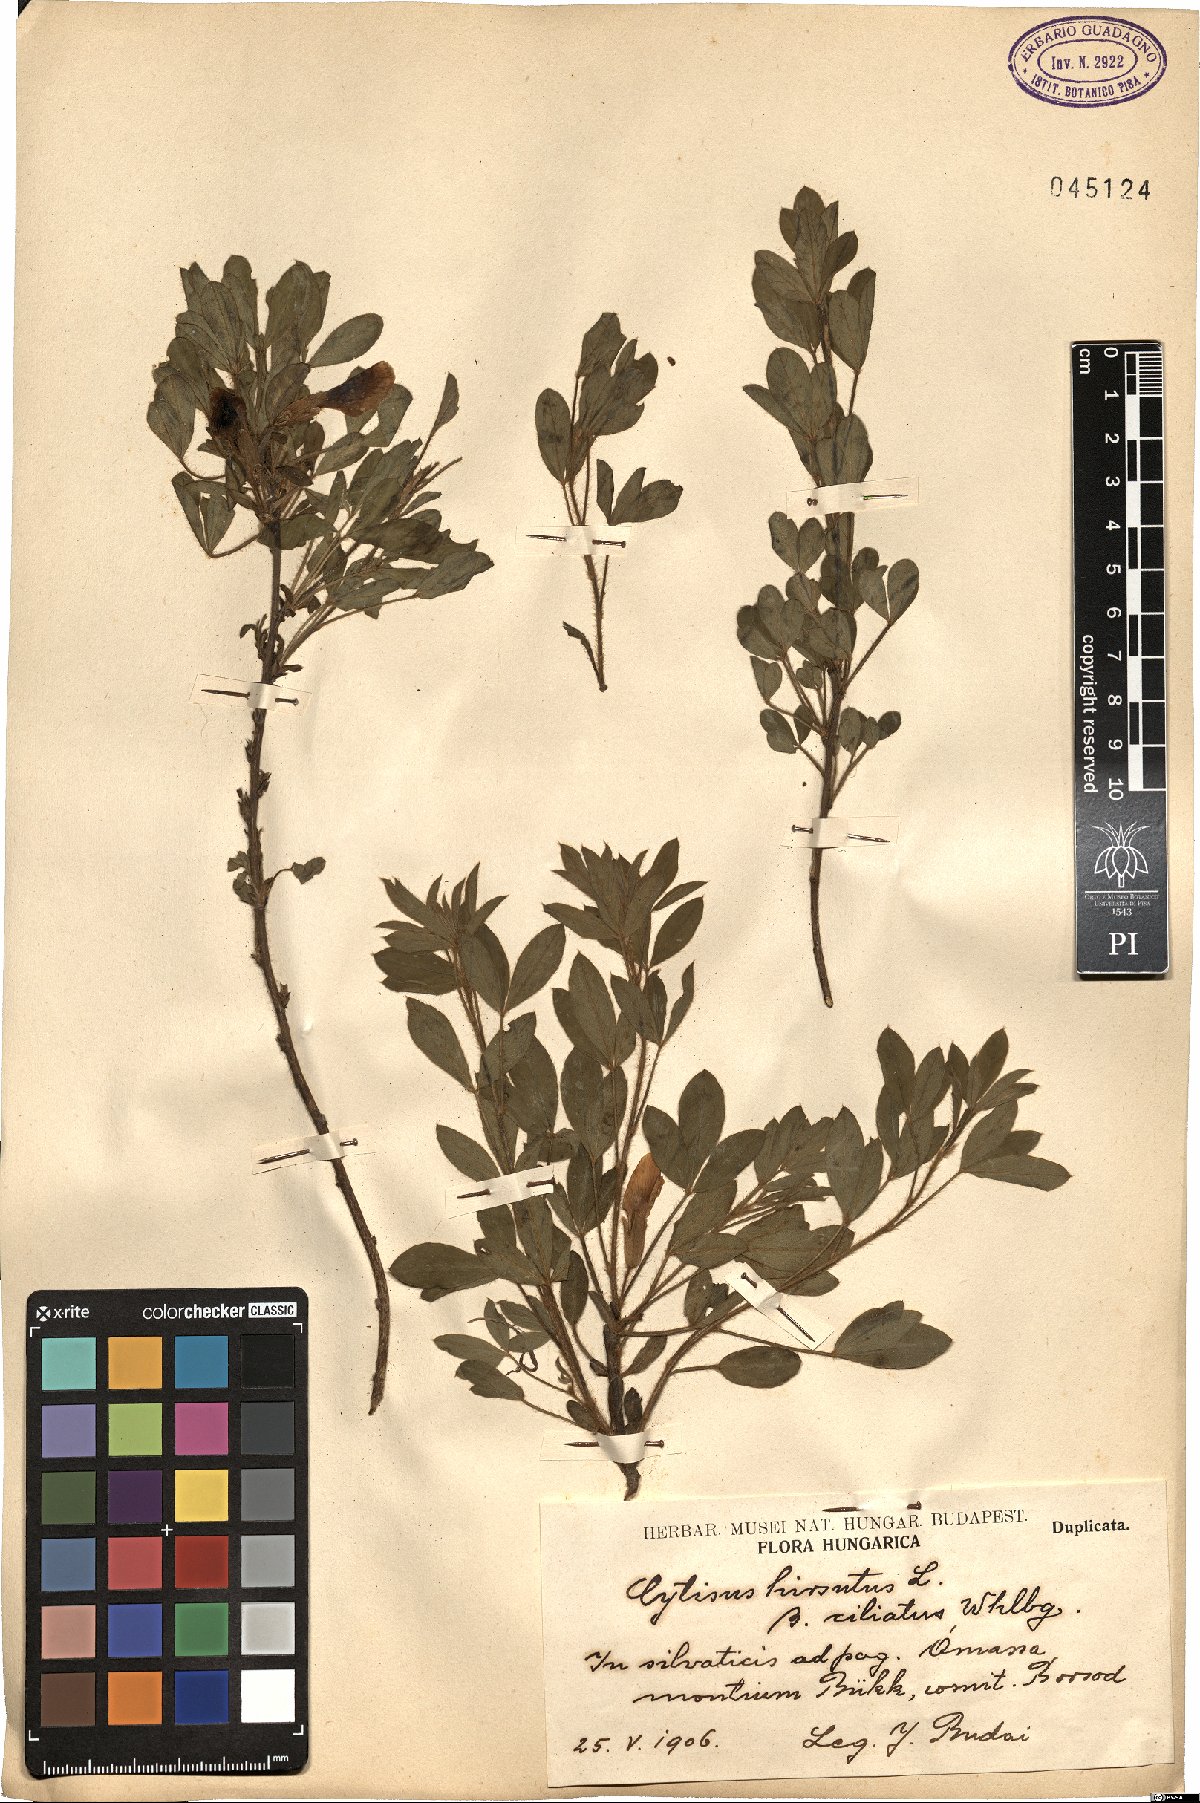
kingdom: Plantae
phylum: Tracheophyta
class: Magnoliopsida
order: Fabales
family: Fabaceae
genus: Chamaecytisus
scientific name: Chamaecytisus hirsutus
